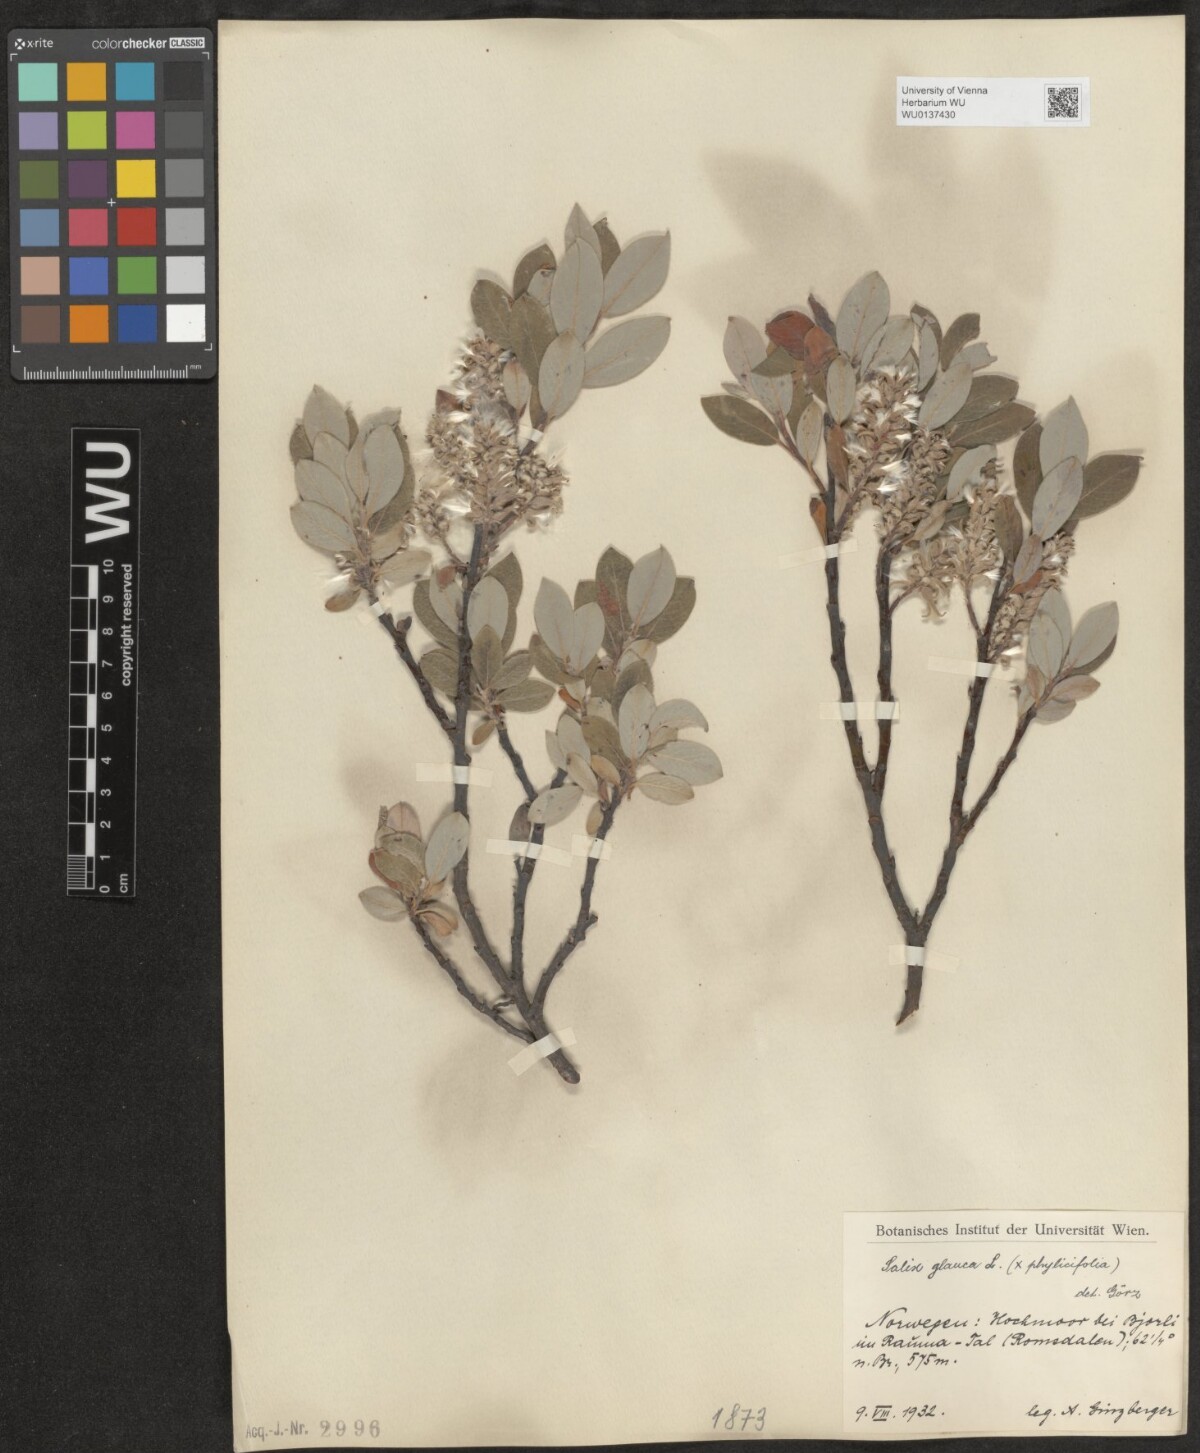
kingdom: Plantae
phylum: Tracheophyta
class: Magnoliopsida
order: Malpighiales
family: Salicaceae
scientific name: Salicaceae
